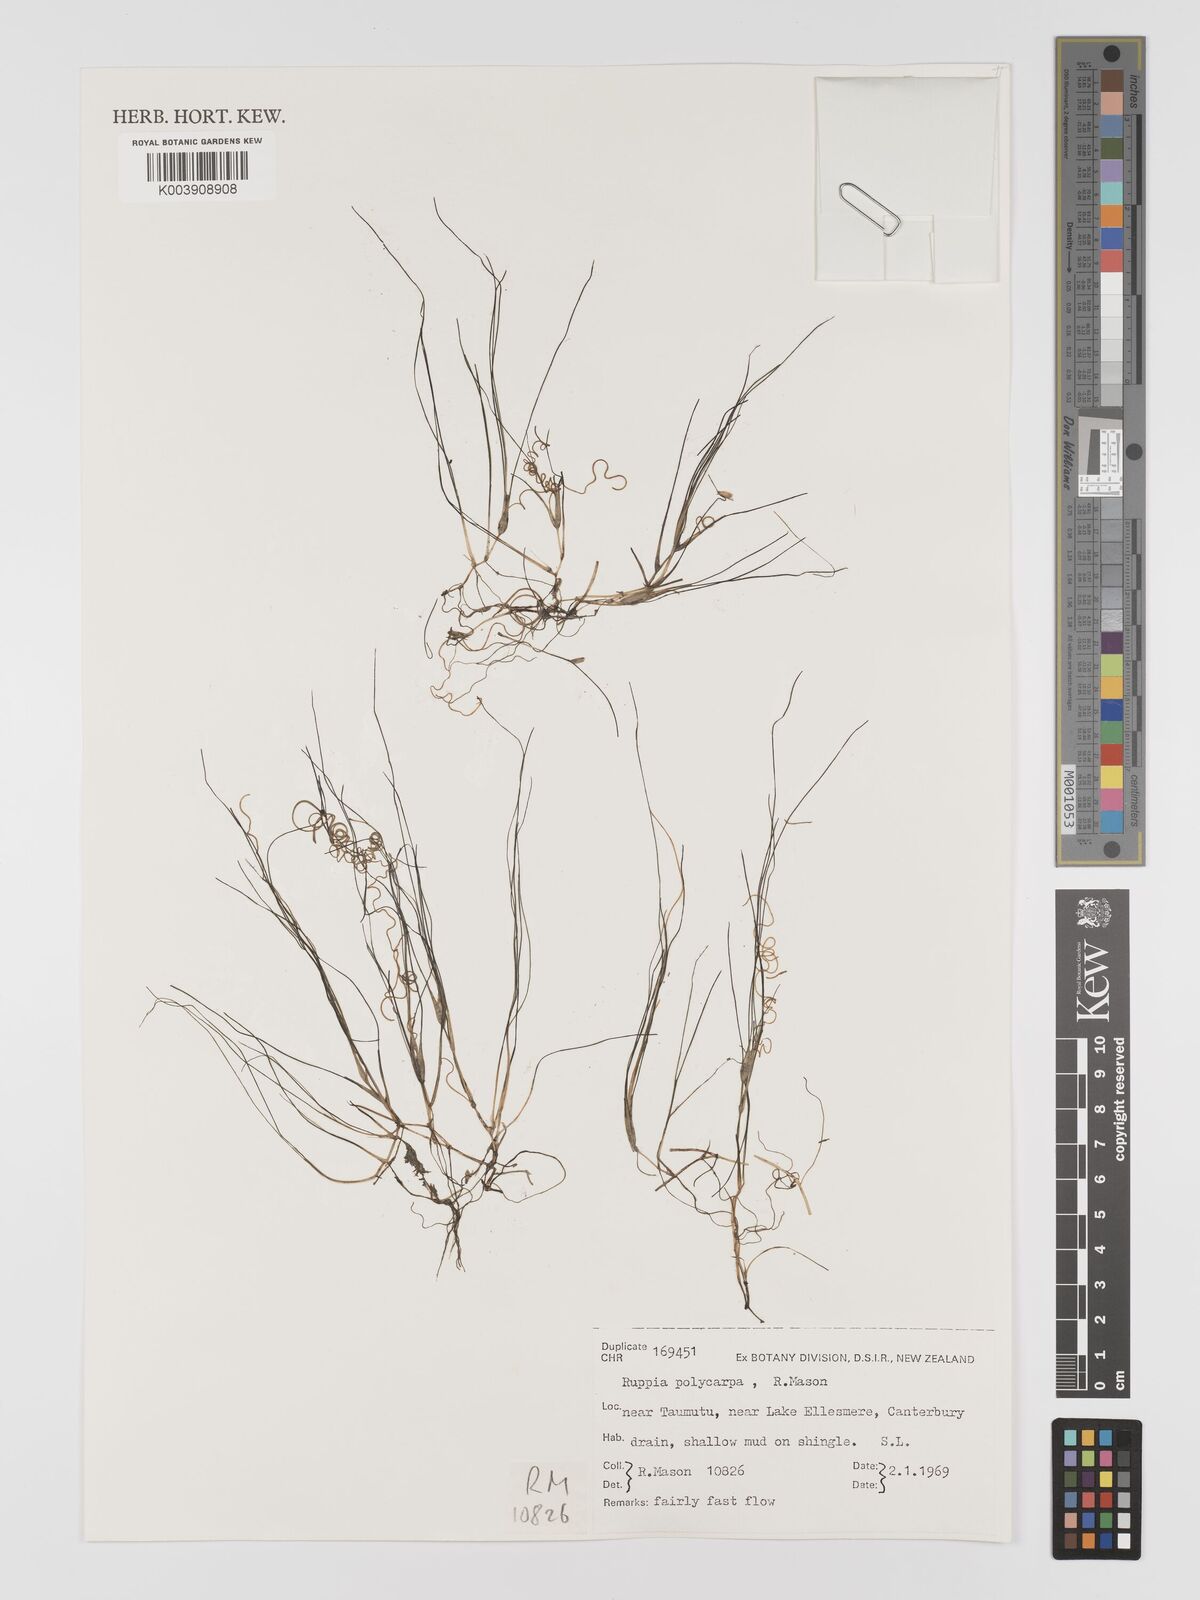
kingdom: Plantae
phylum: Tracheophyta
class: Liliopsida
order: Alismatales
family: Ruppiaceae
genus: Ruppia
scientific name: Ruppia polycarpa
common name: Species code: rp
